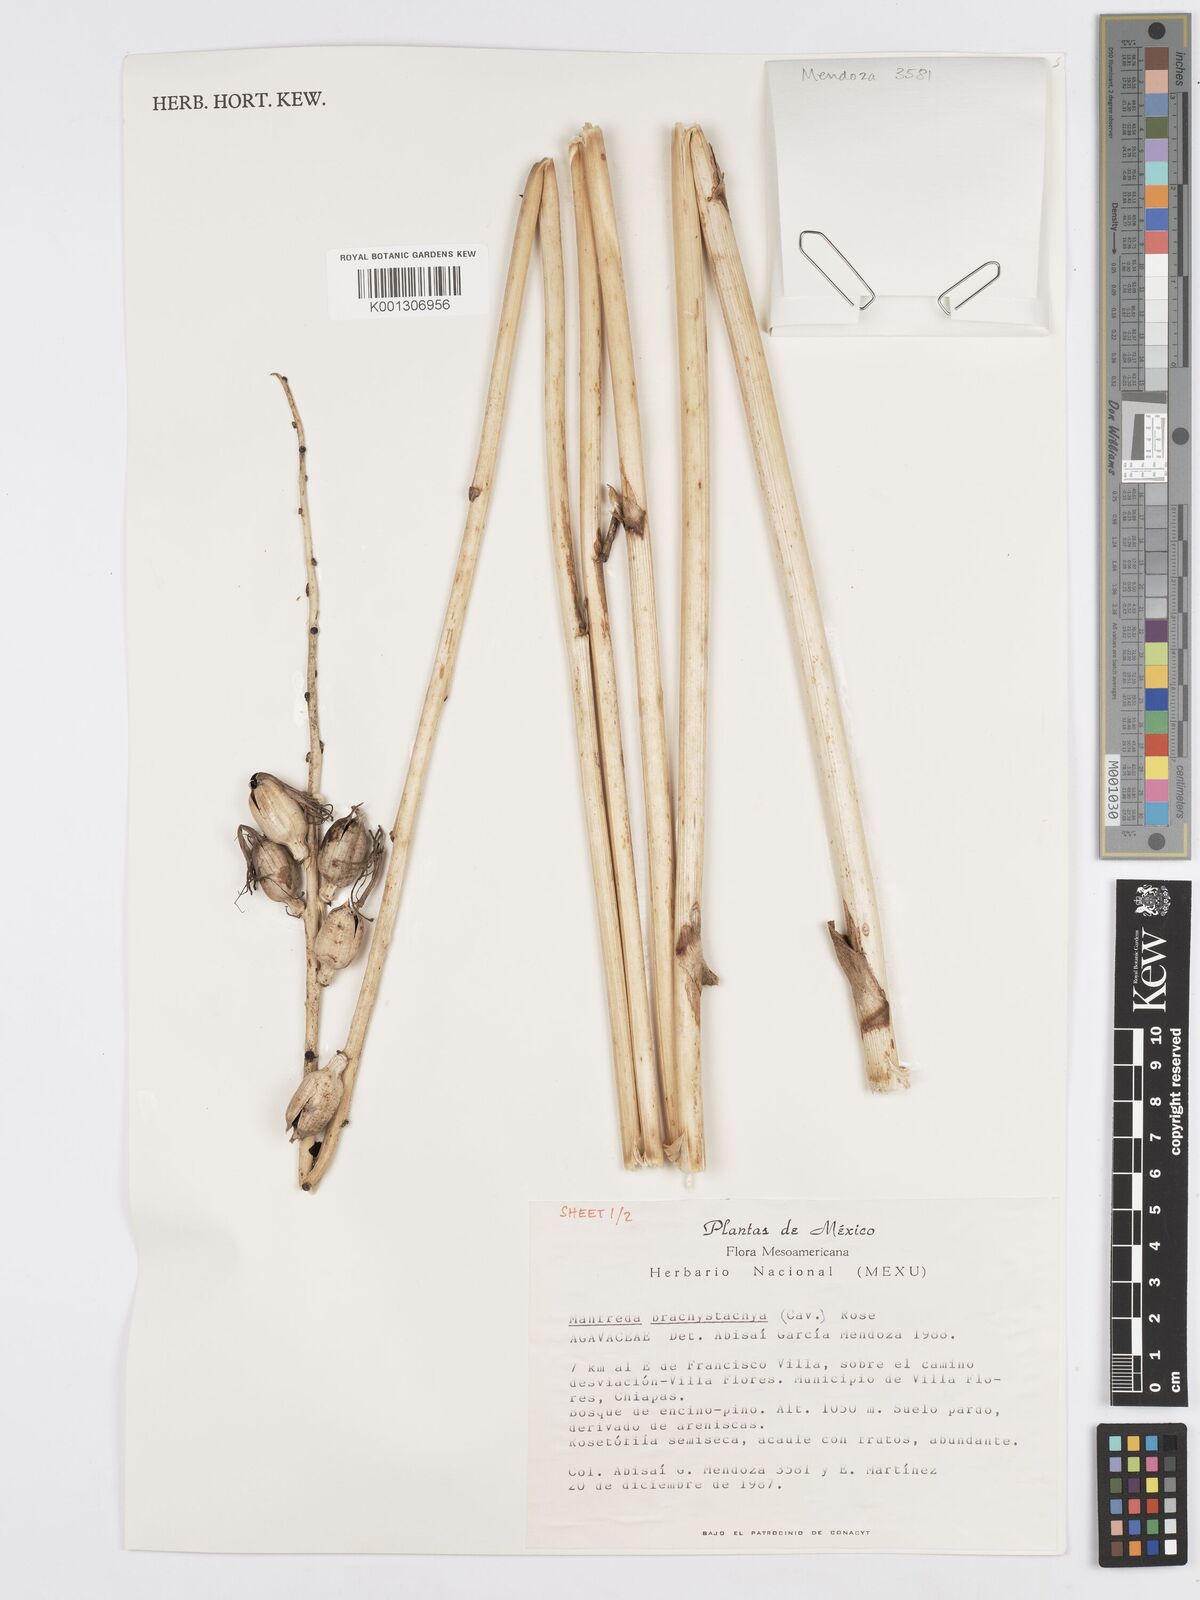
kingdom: Plantae
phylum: Tracheophyta
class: Liliopsida
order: Asparagales
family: Asparagaceae
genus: Agave
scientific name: Agave scabra
